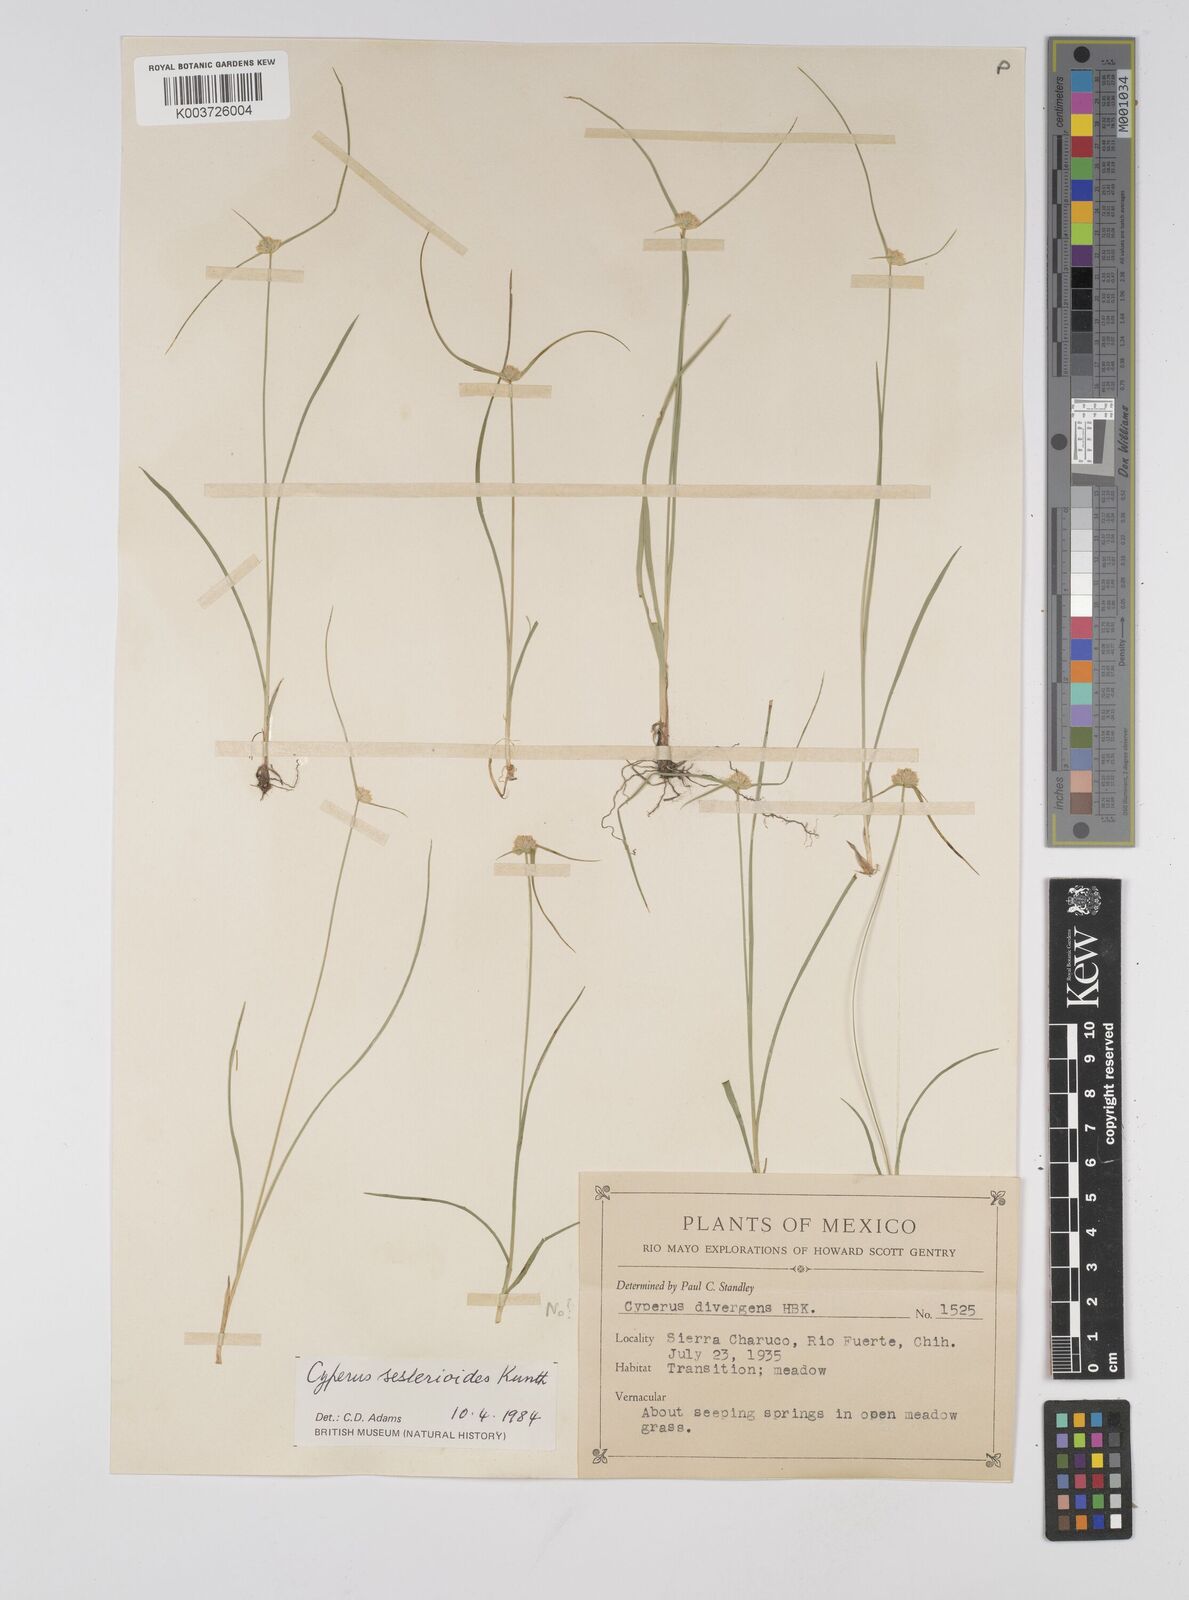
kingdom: Plantae
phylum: Tracheophyta
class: Liliopsida
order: Poales
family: Cyperaceae
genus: Cyperus
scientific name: Cyperus seslerioides
